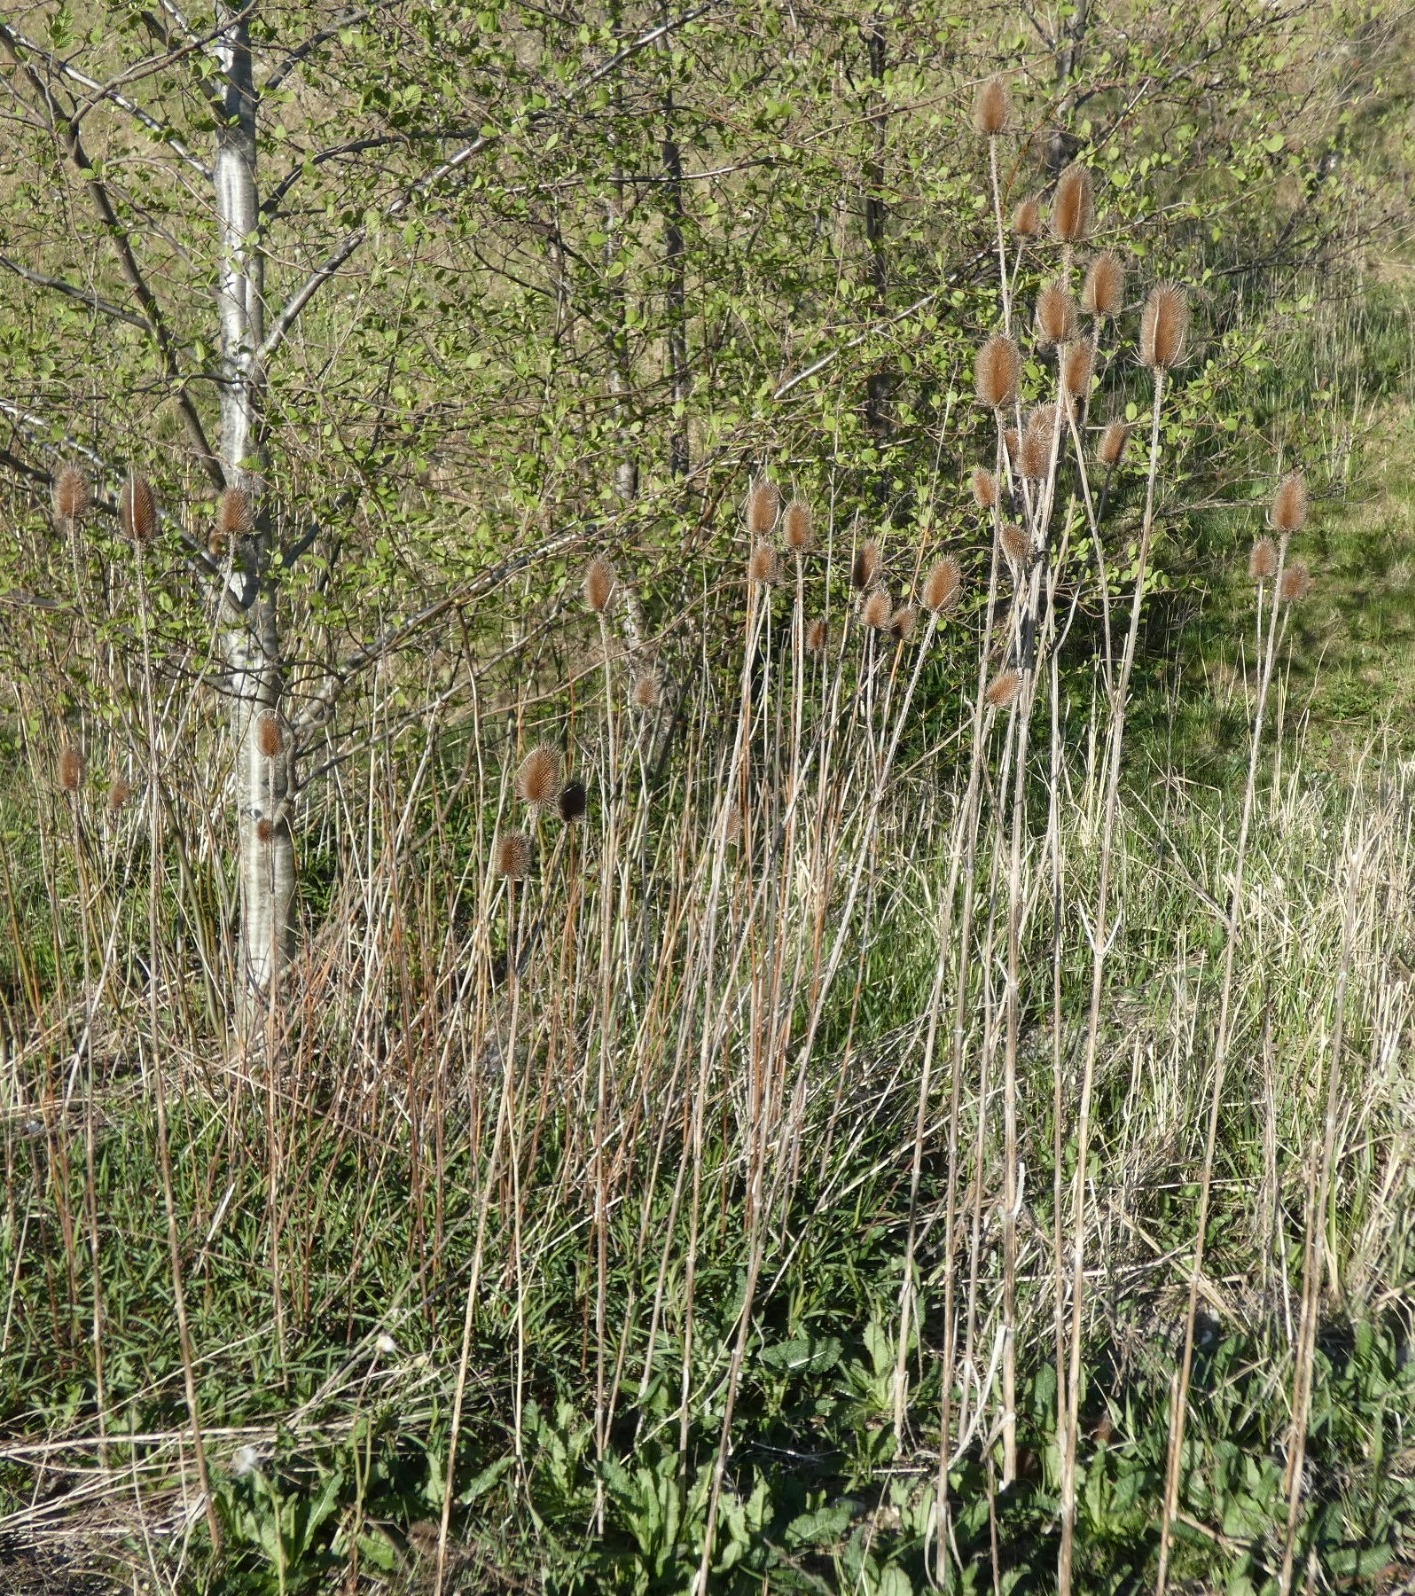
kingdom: Plantae
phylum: Tracheophyta
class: Magnoliopsida
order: Dipsacales
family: Caprifoliaceae
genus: Dipsacus
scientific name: Dipsacus fullonum
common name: Gærde-kartebolle
